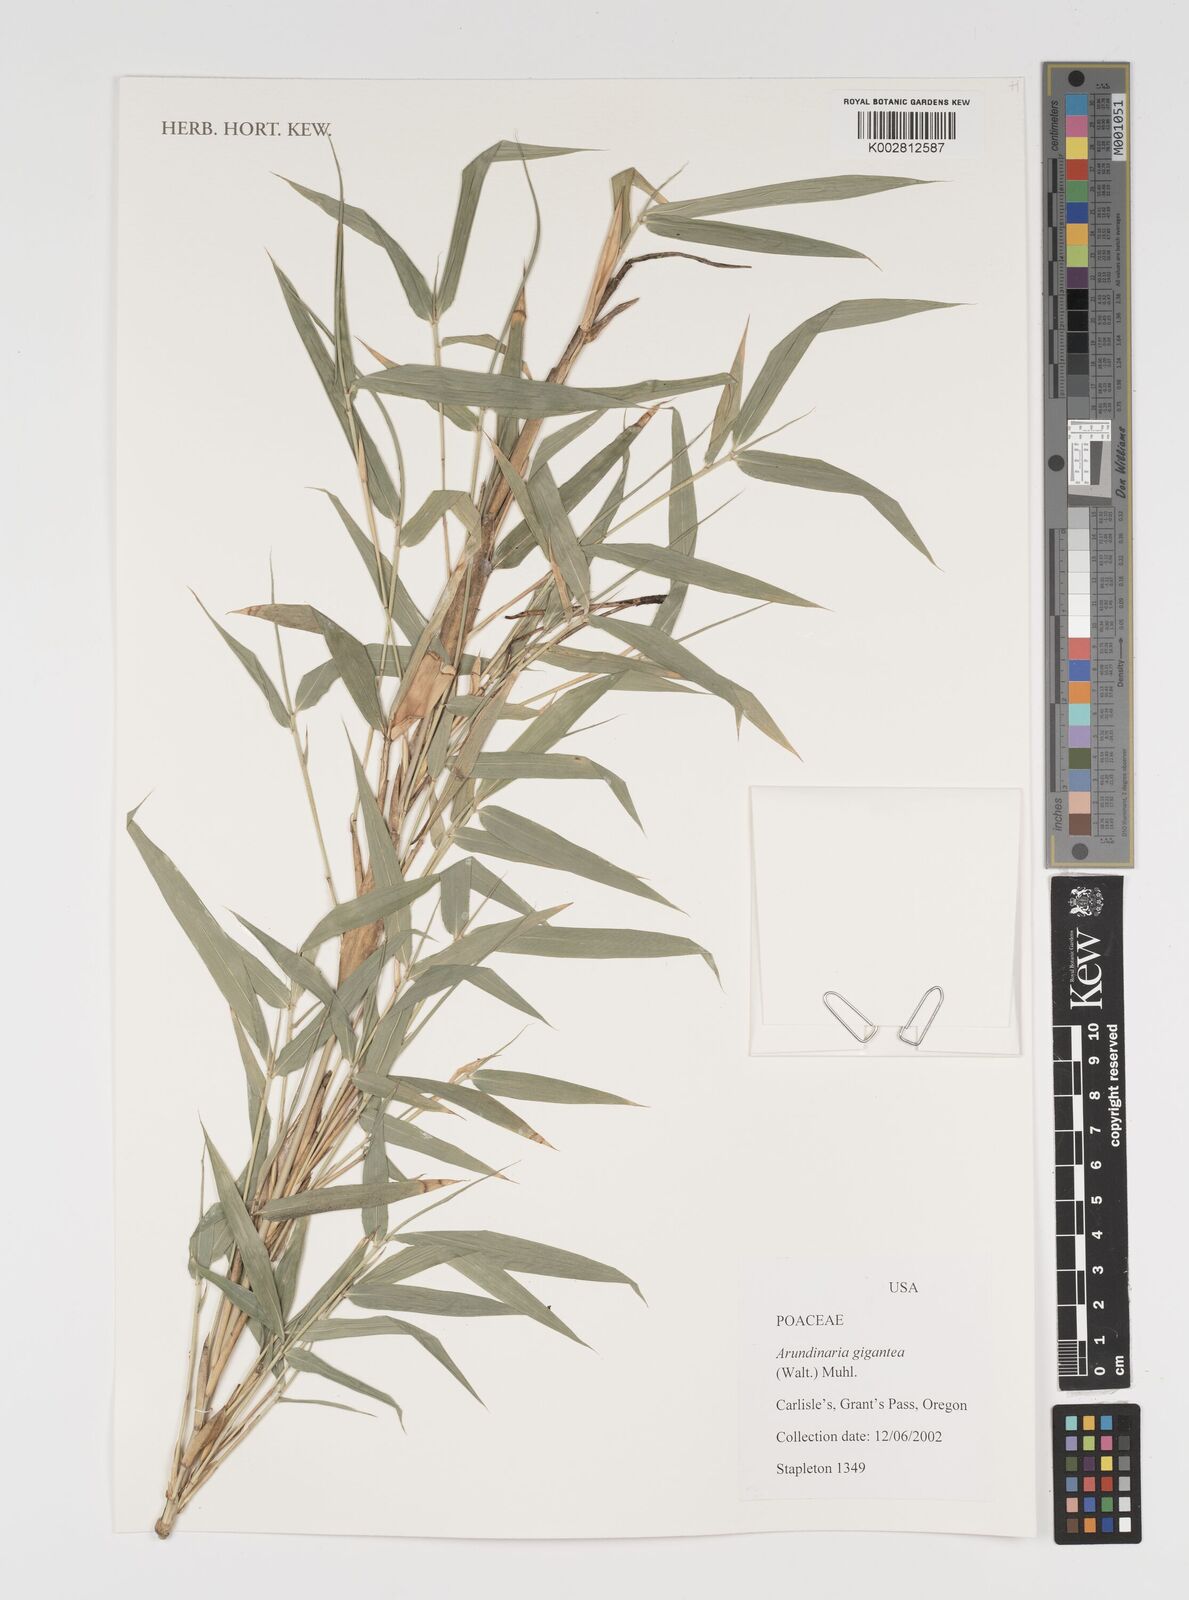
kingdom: Plantae
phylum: Tracheophyta
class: Liliopsida
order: Poales
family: Poaceae
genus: Arundinaria
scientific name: Arundinaria gigantea
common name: Giant cane
